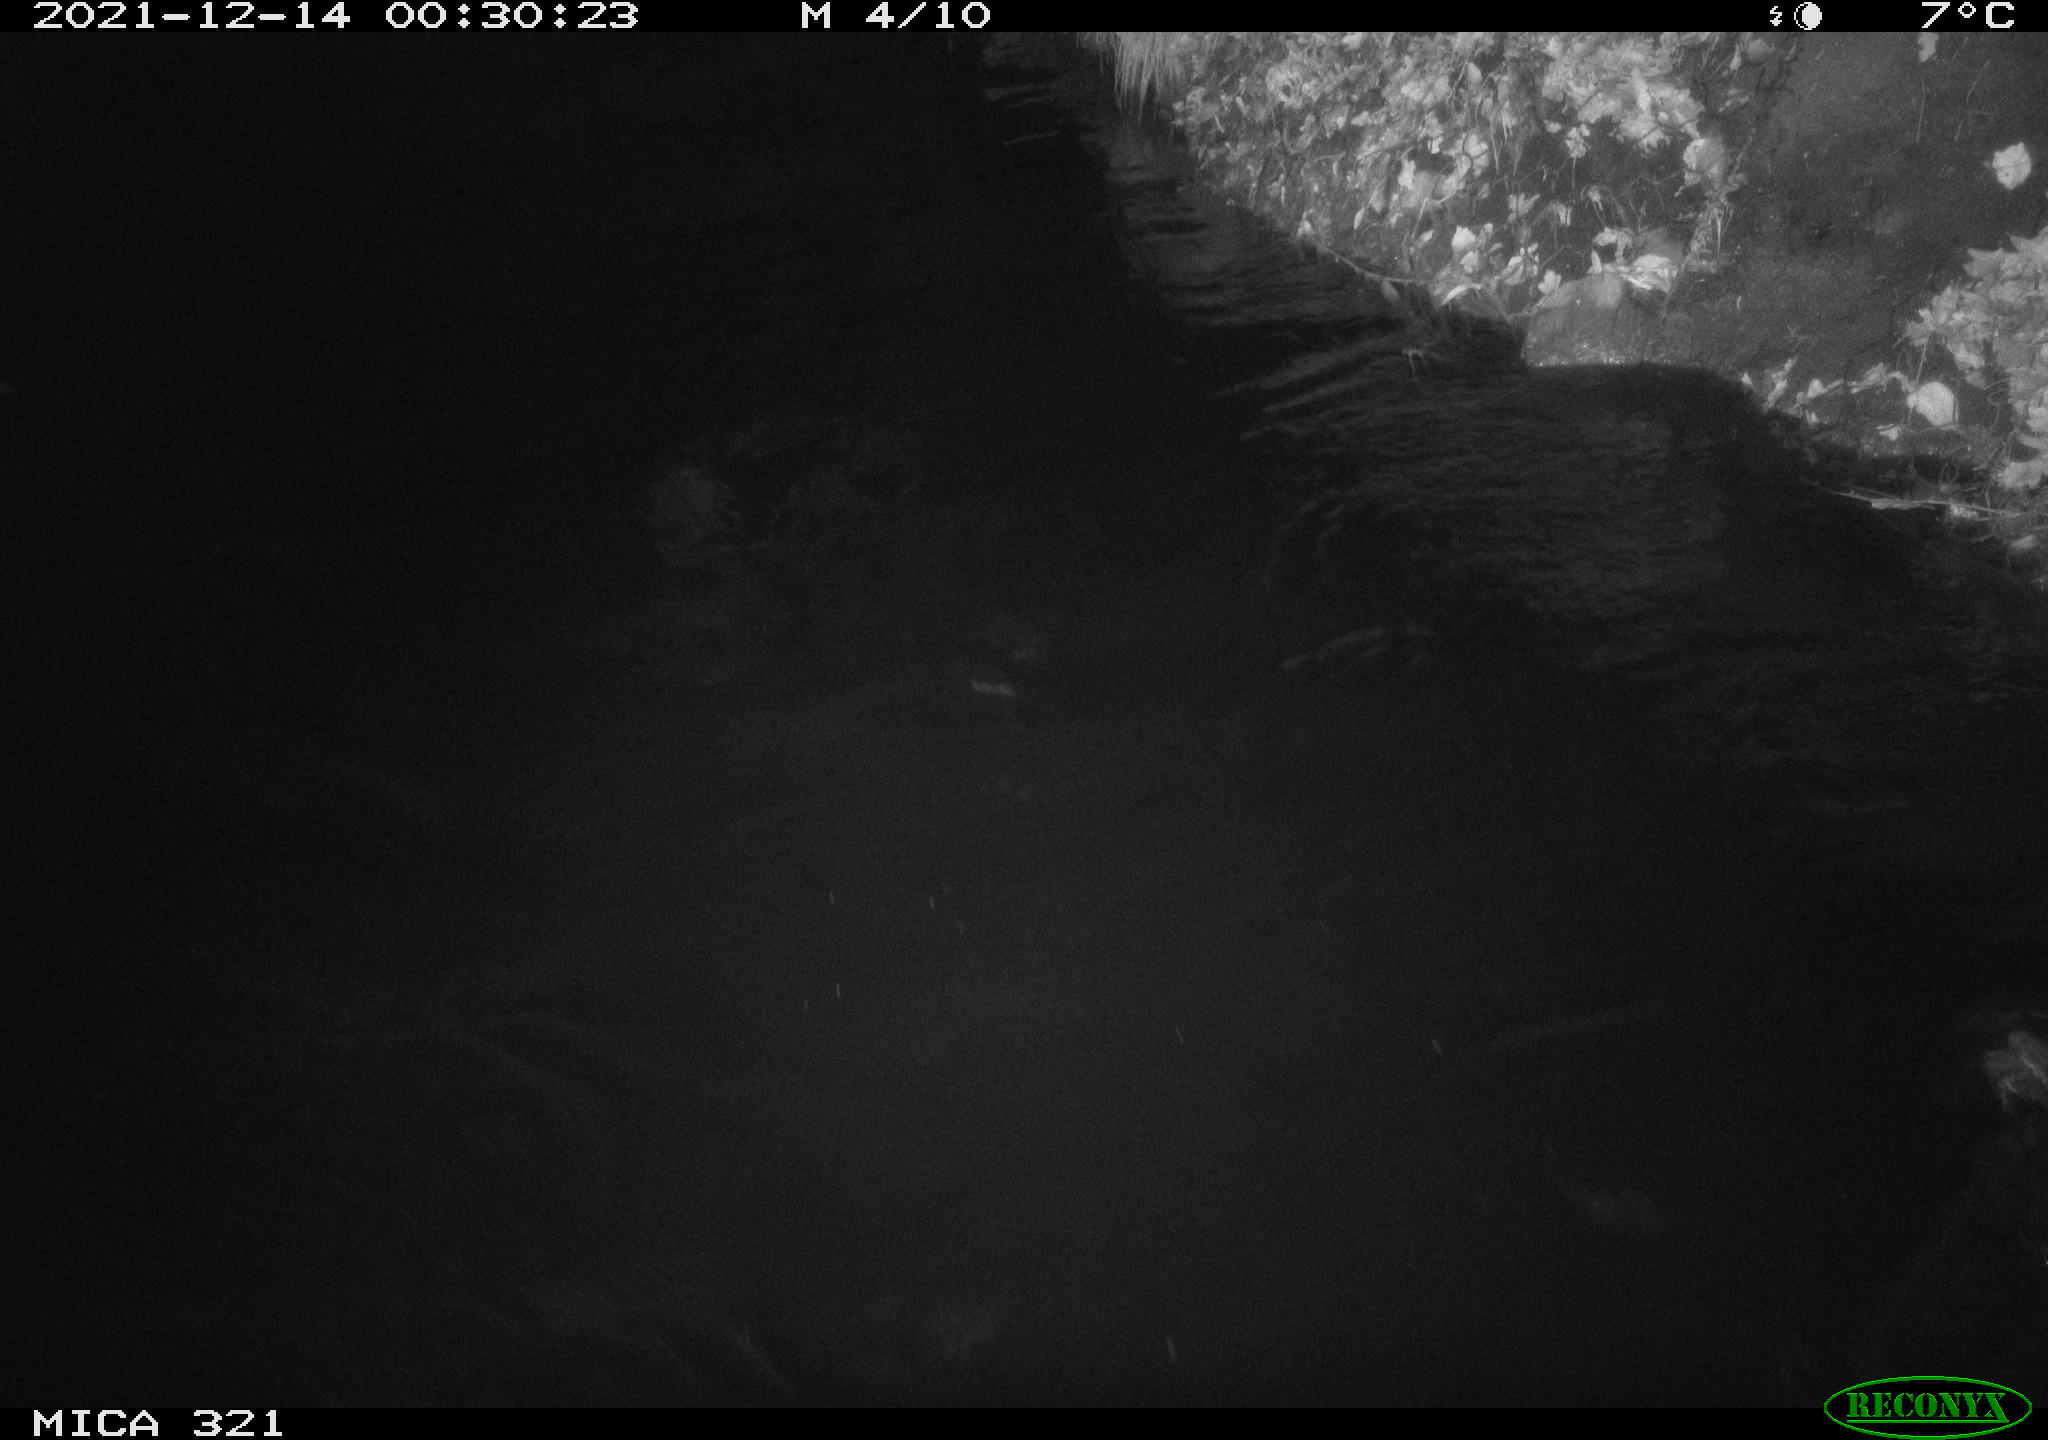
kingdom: Animalia
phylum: Chordata
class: Aves
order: Anseriformes
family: Anatidae
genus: Anas
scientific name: Anas platyrhynchos
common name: Mallard
